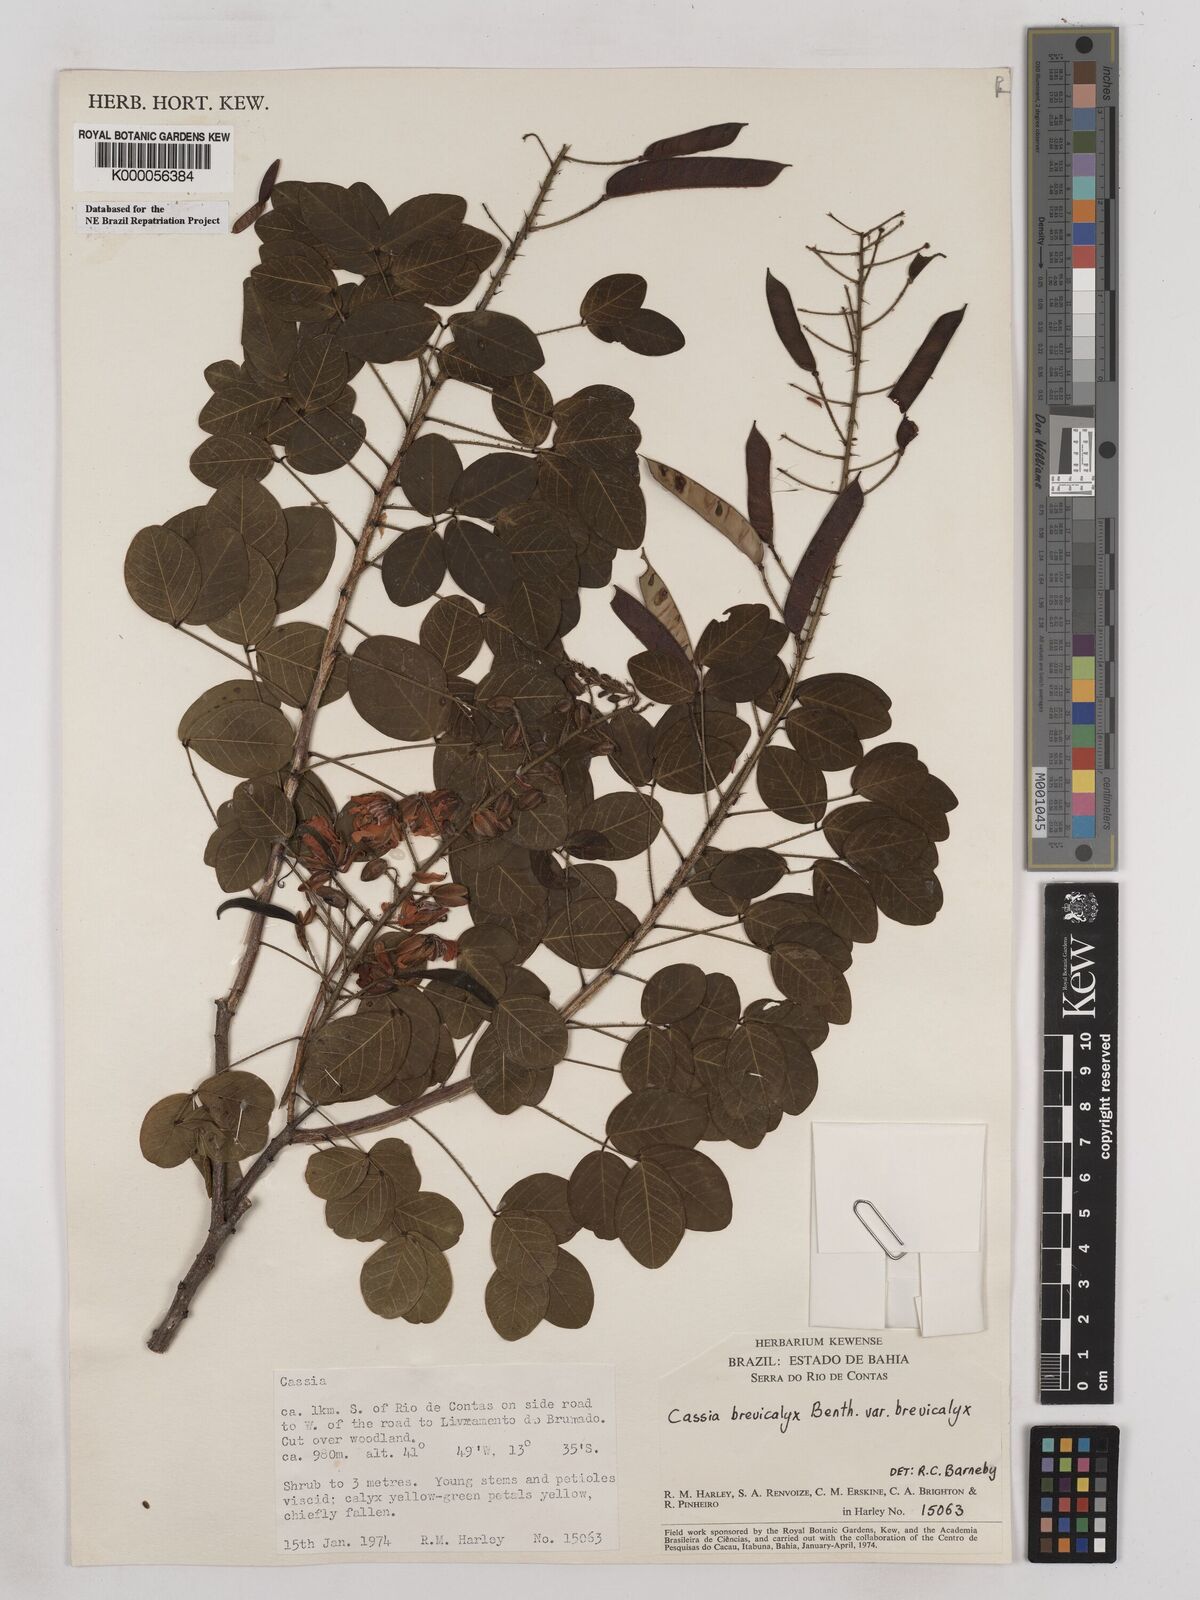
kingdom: Plantae
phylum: Tracheophyta
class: Magnoliopsida
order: Fabales
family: Fabaceae
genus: Chamaecrista
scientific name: Chamaecrista brevicalyx
